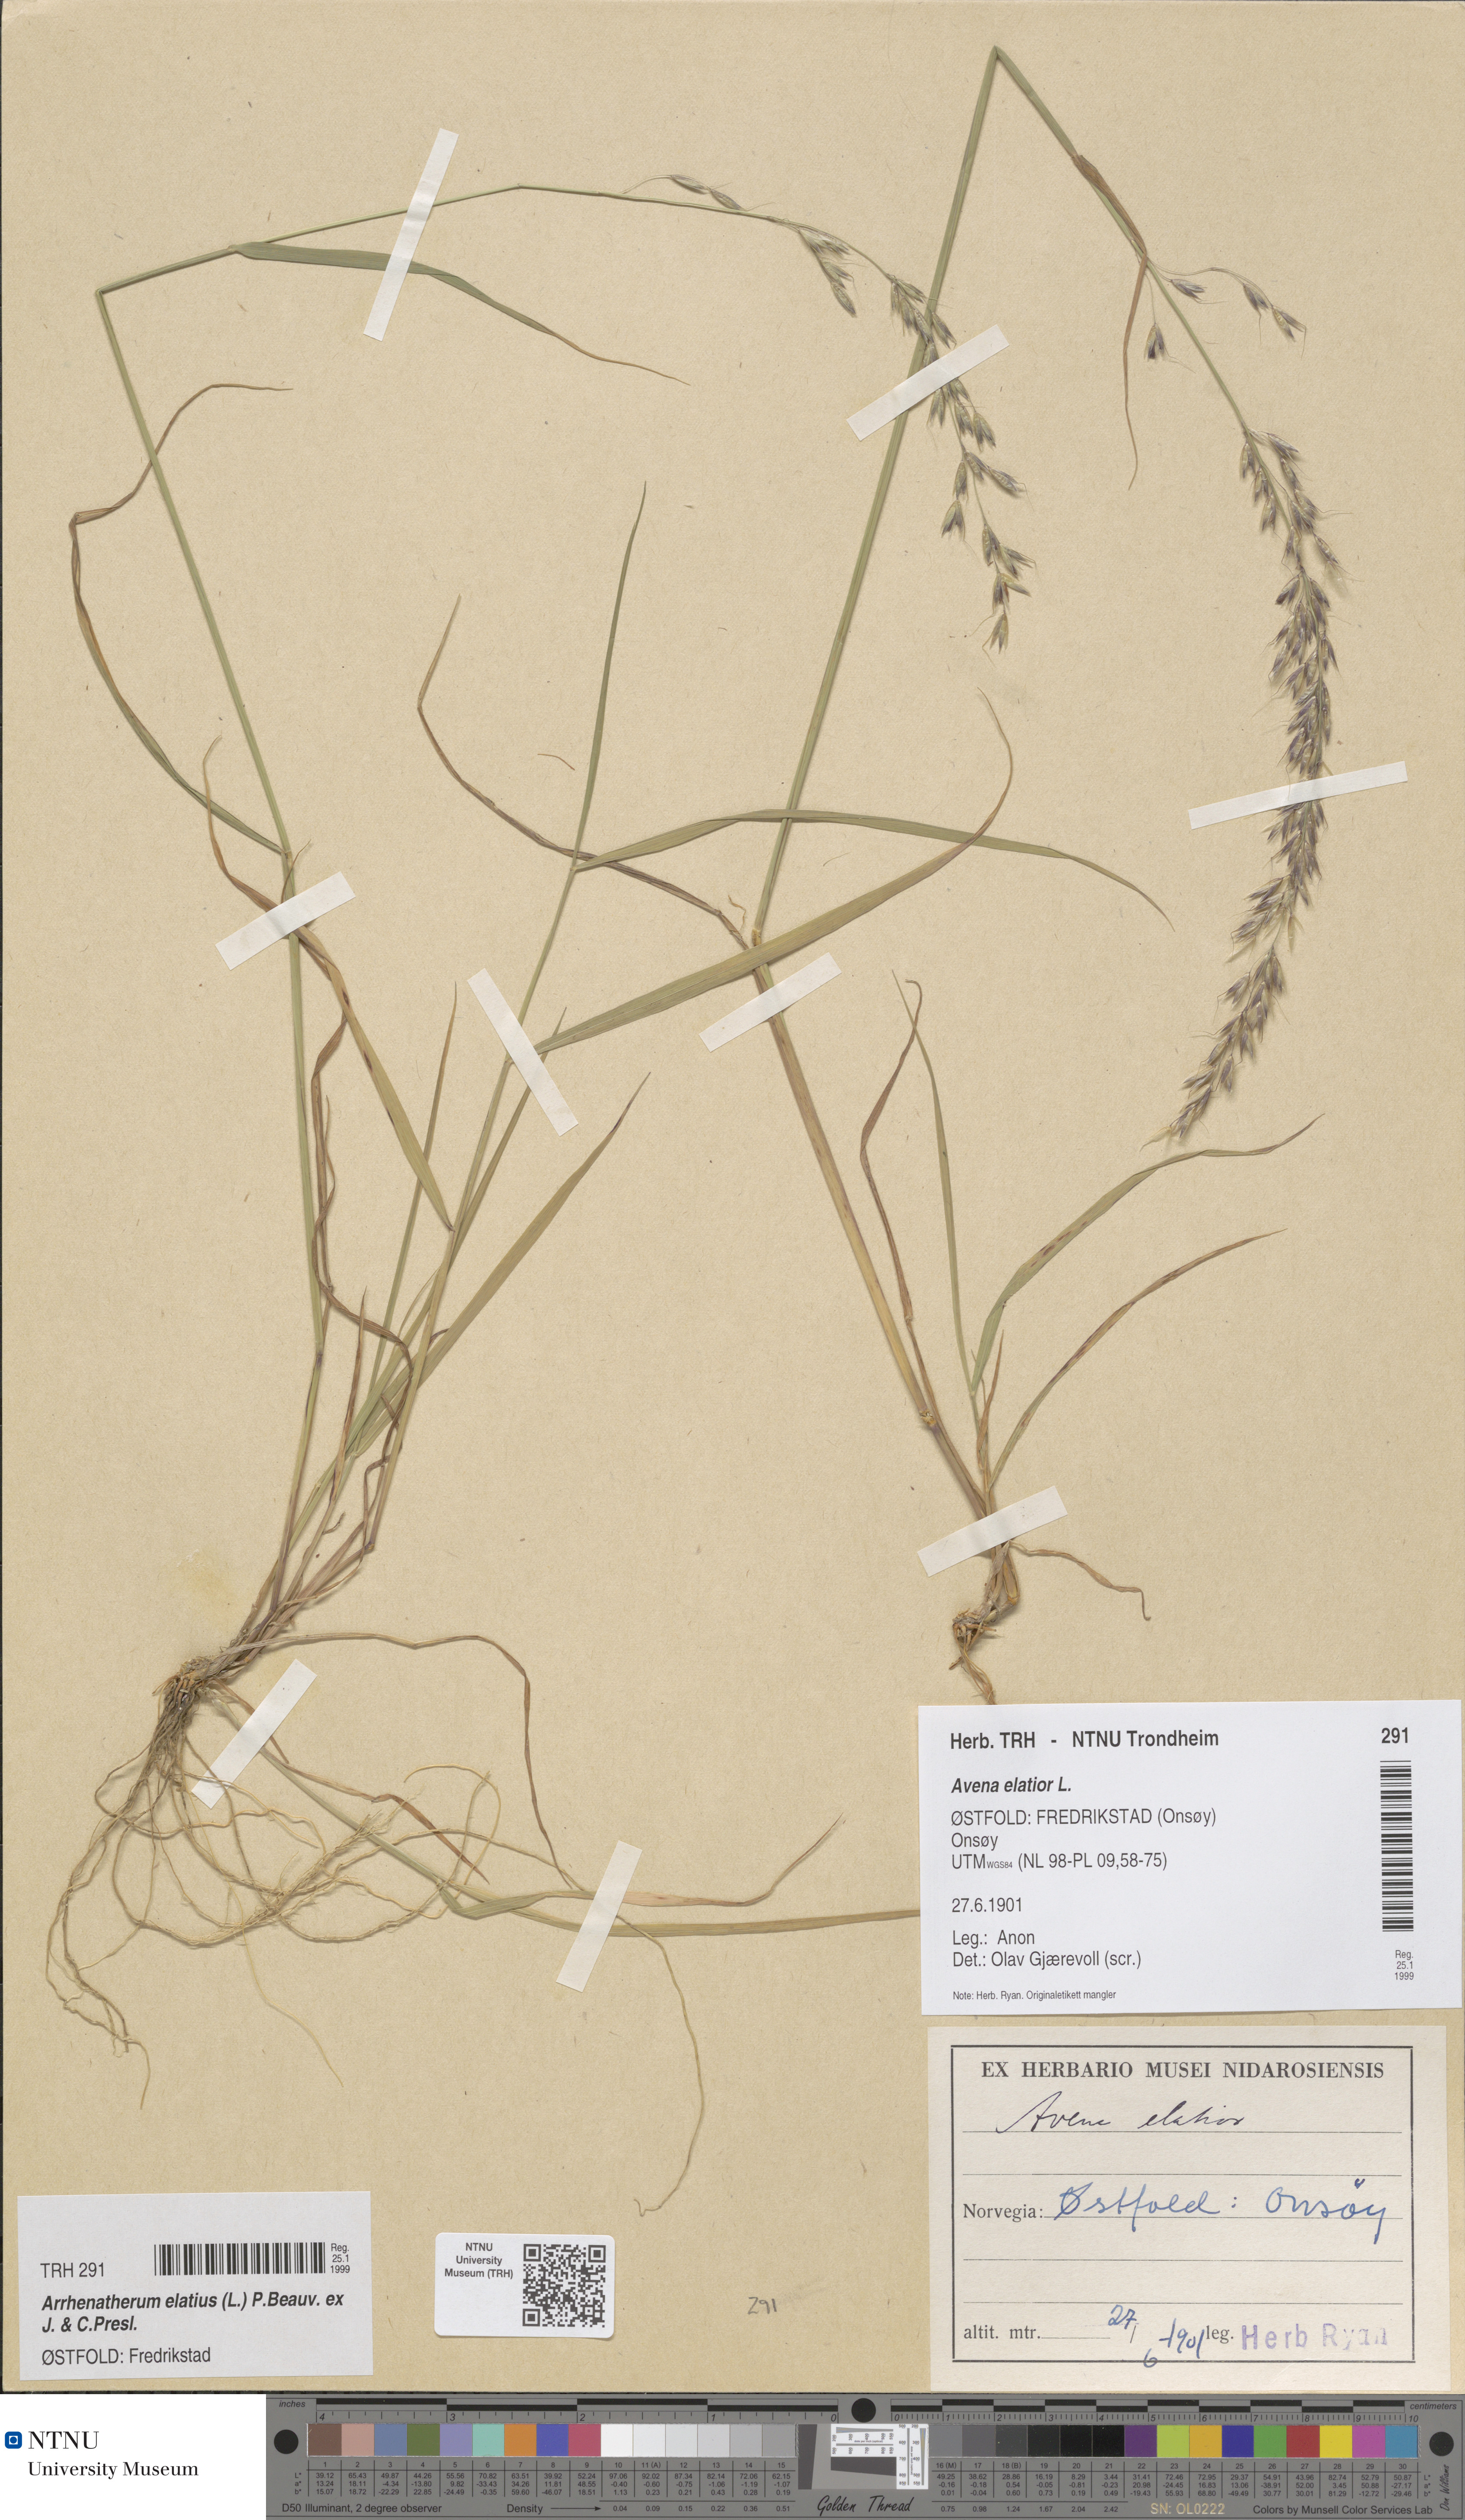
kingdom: Plantae
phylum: Tracheophyta
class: Liliopsida
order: Poales
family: Poaceae
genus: Arrhenatherum
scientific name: Arrhenatherum elatius
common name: Tall oatgrass
